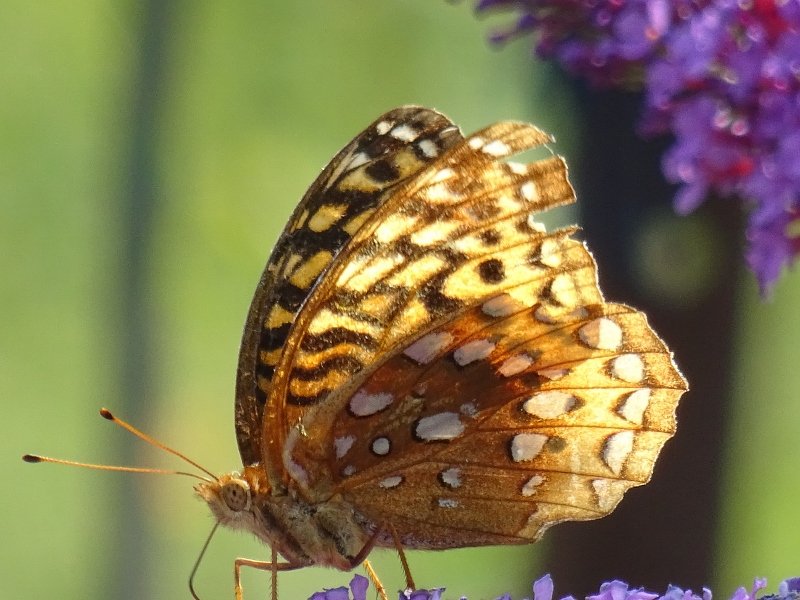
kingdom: Animalia
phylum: Arthropoda
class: Insecta
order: Lepidoptera
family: Nymphalidae
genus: Speyeria
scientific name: Speyeria cybele
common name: Great Spangled Fritillary
